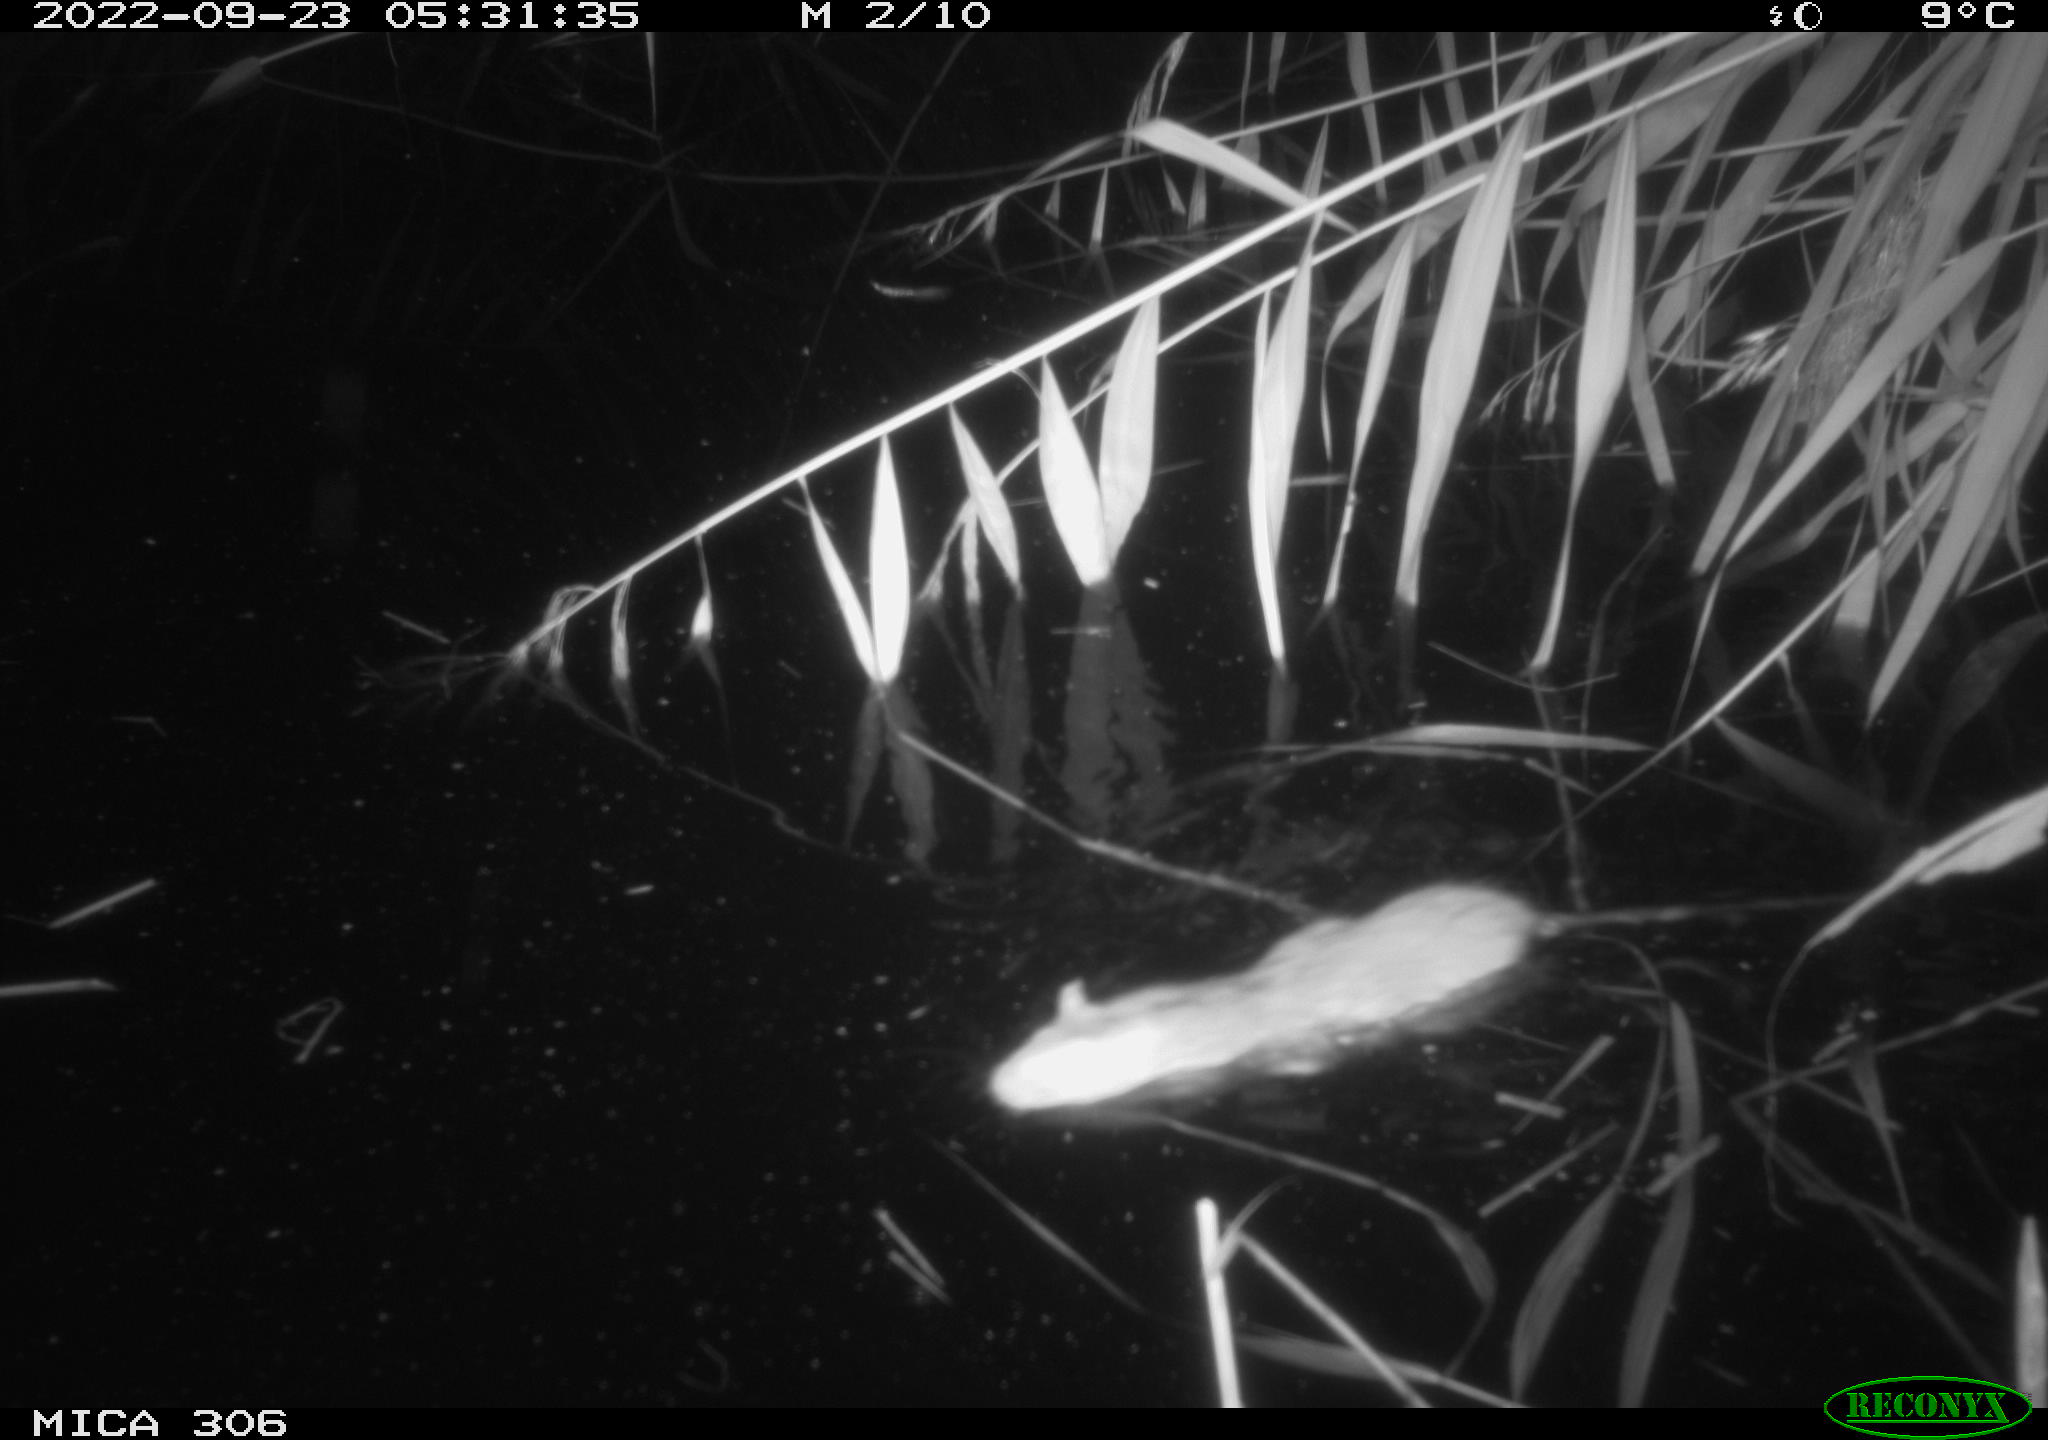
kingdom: Animalia
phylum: Chordata
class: Mammalia
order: Rodentia
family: Muridae
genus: Rattus
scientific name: Rattus norvegicus
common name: Brown rat
